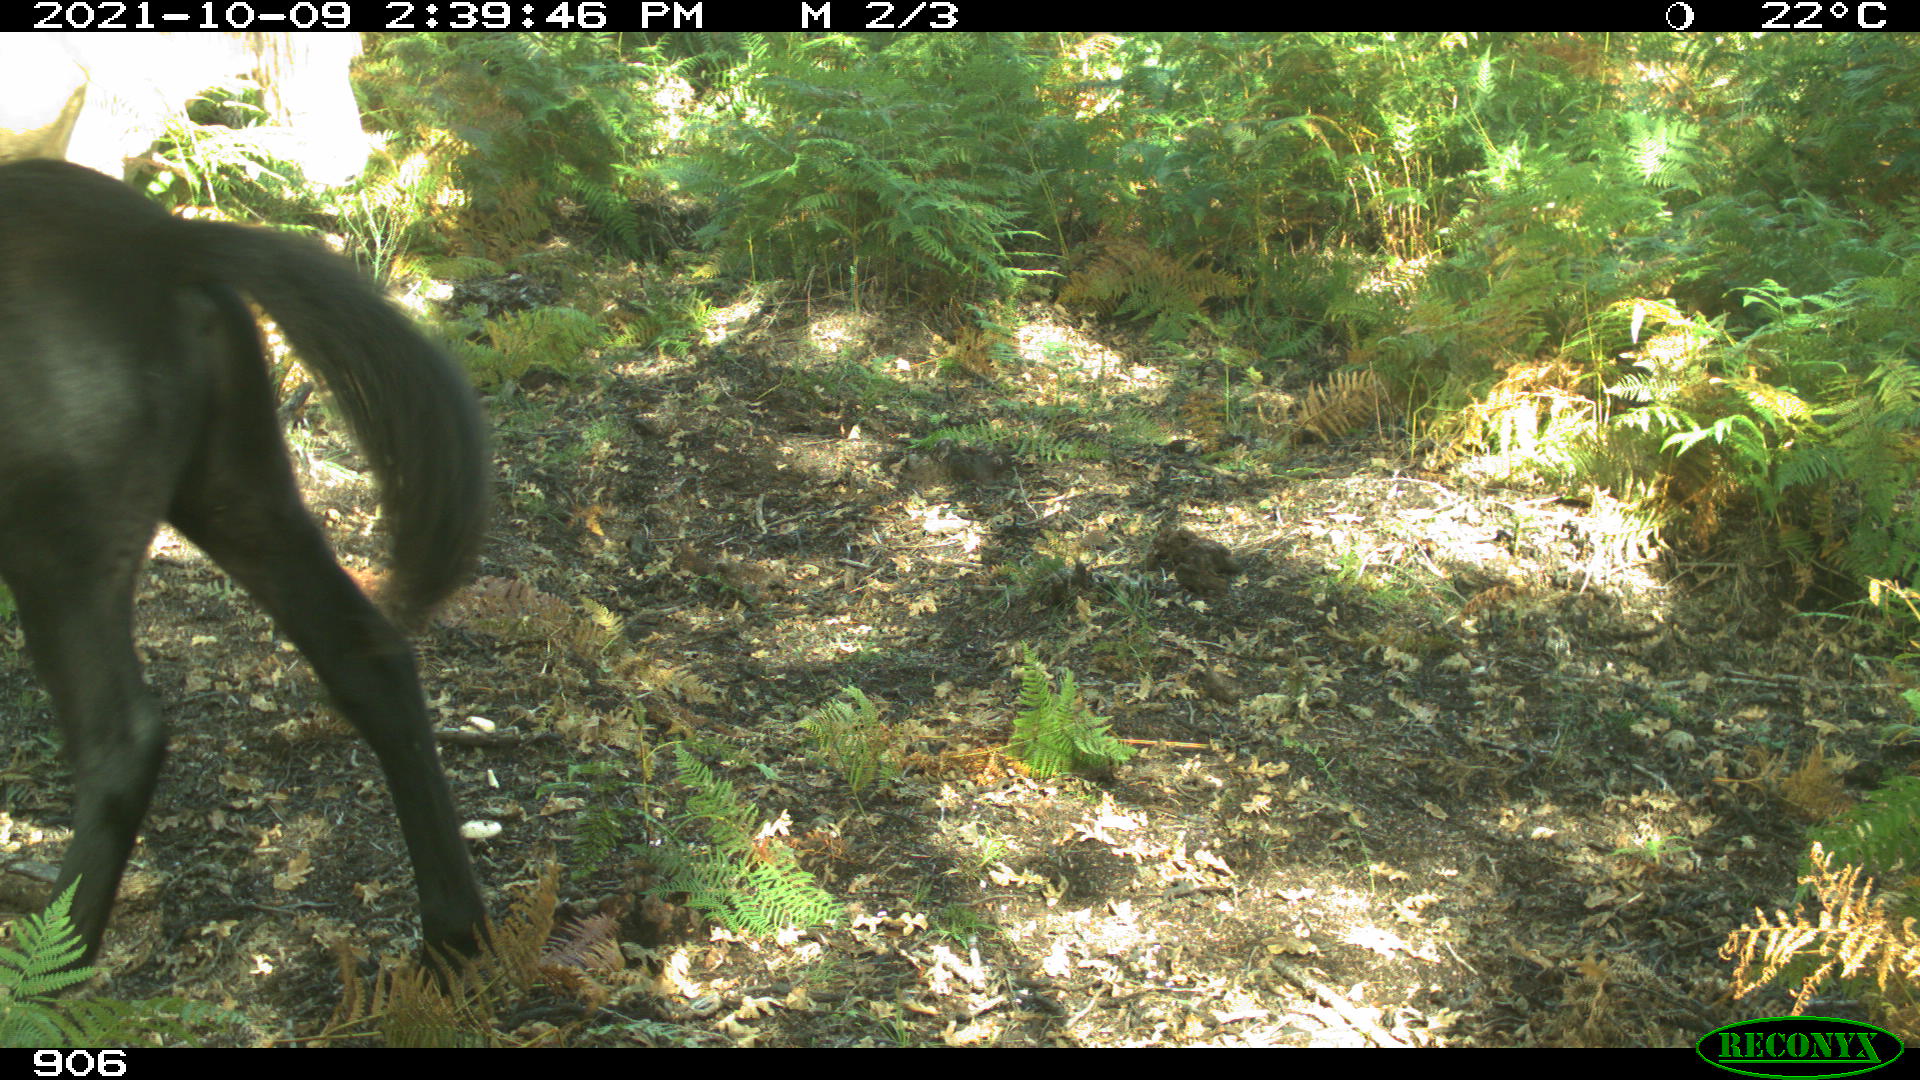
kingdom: Animalia
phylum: Chordata
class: Mammalia
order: Perissodactyla
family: Equidae
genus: Equus
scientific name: Equus caballus
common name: Horse
